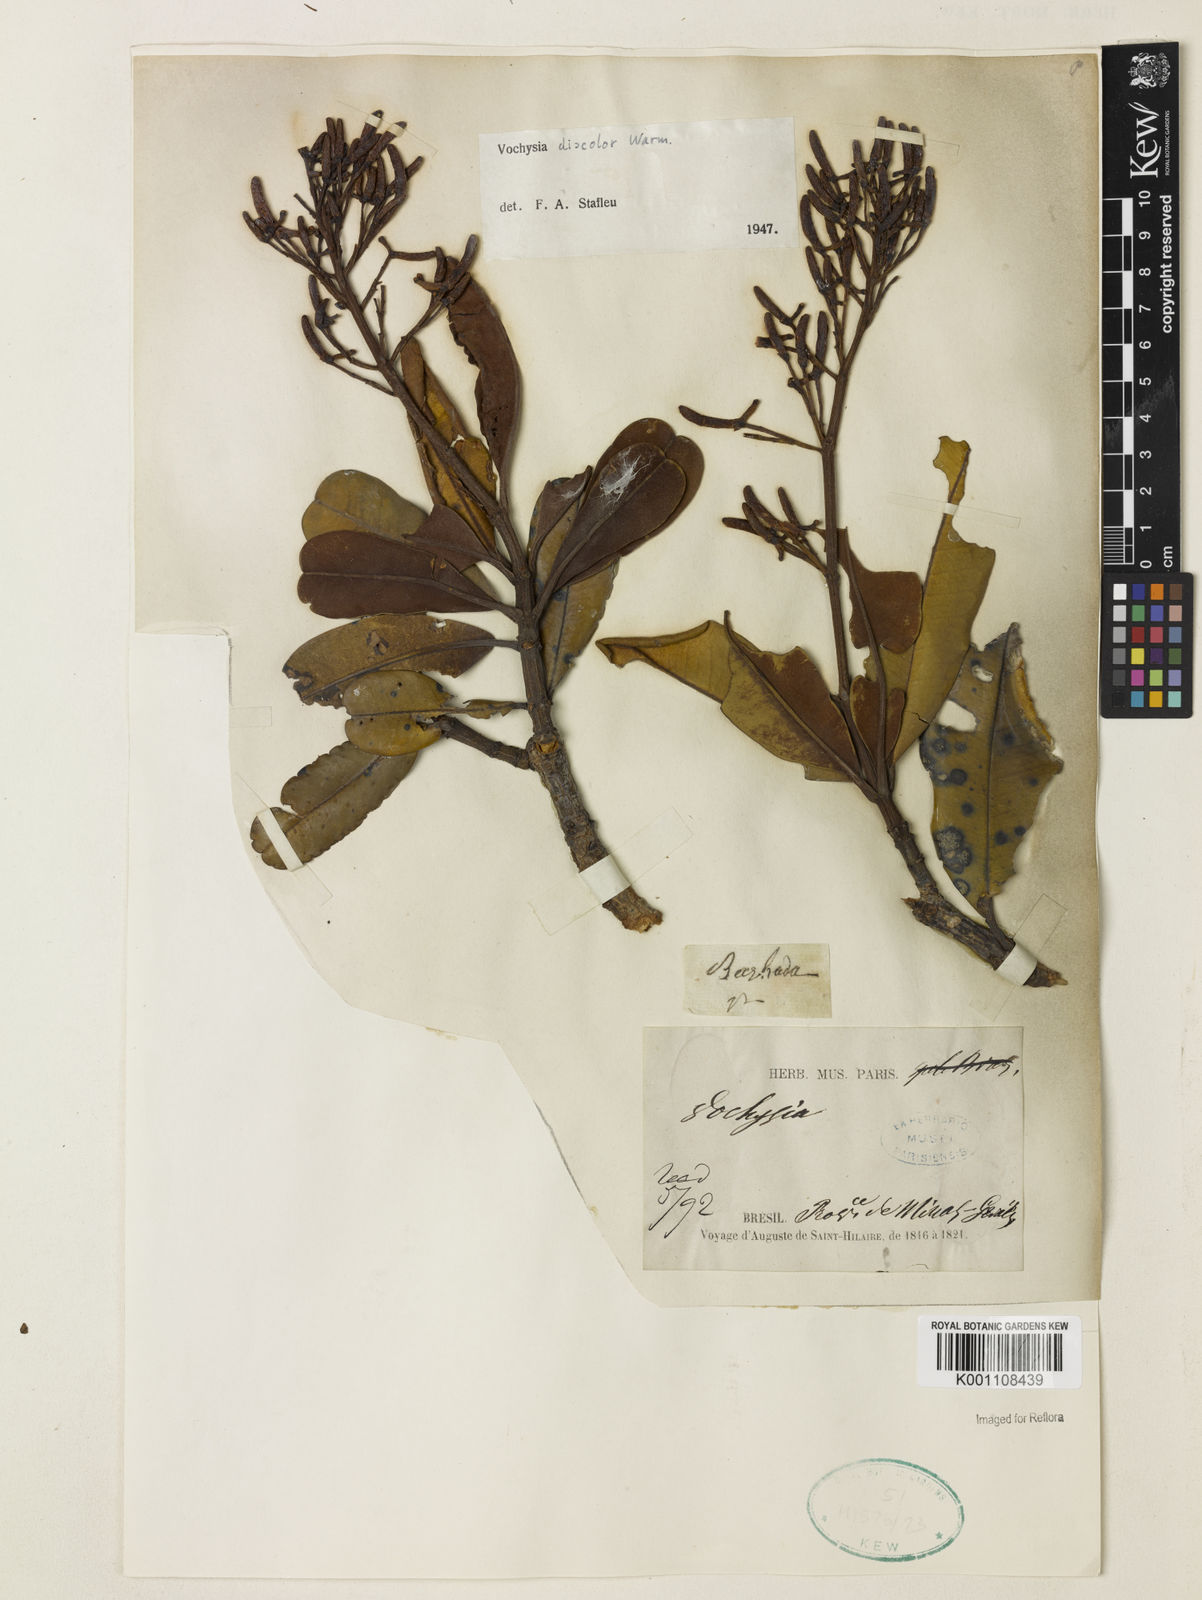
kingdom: Plantae
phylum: Tracheophyta
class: Magnoliopsida
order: Myrtales
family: Vochysiaceae
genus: Vochysia
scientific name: Vochysia discolor
